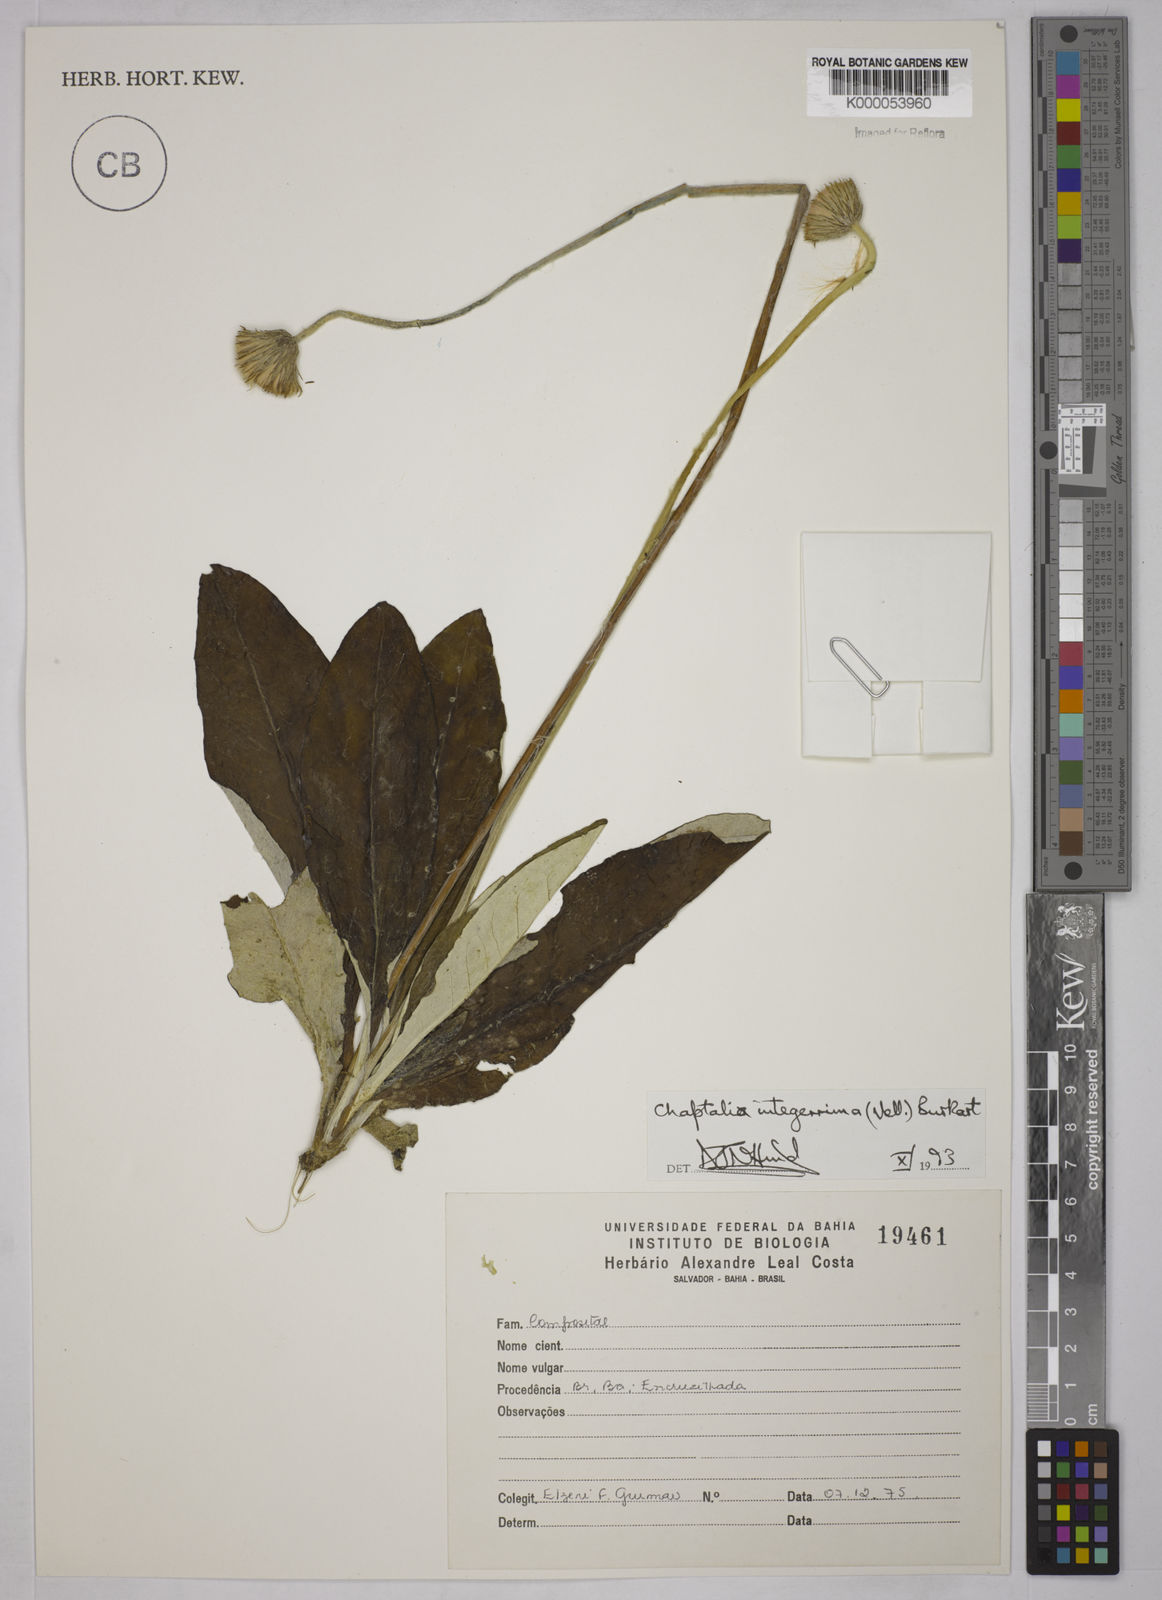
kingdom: Plantae
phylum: Tracheophyta
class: Magnoliopsida
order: Asterales
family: Asteraceae
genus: Chaptalia
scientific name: Chaptalia integerrima
